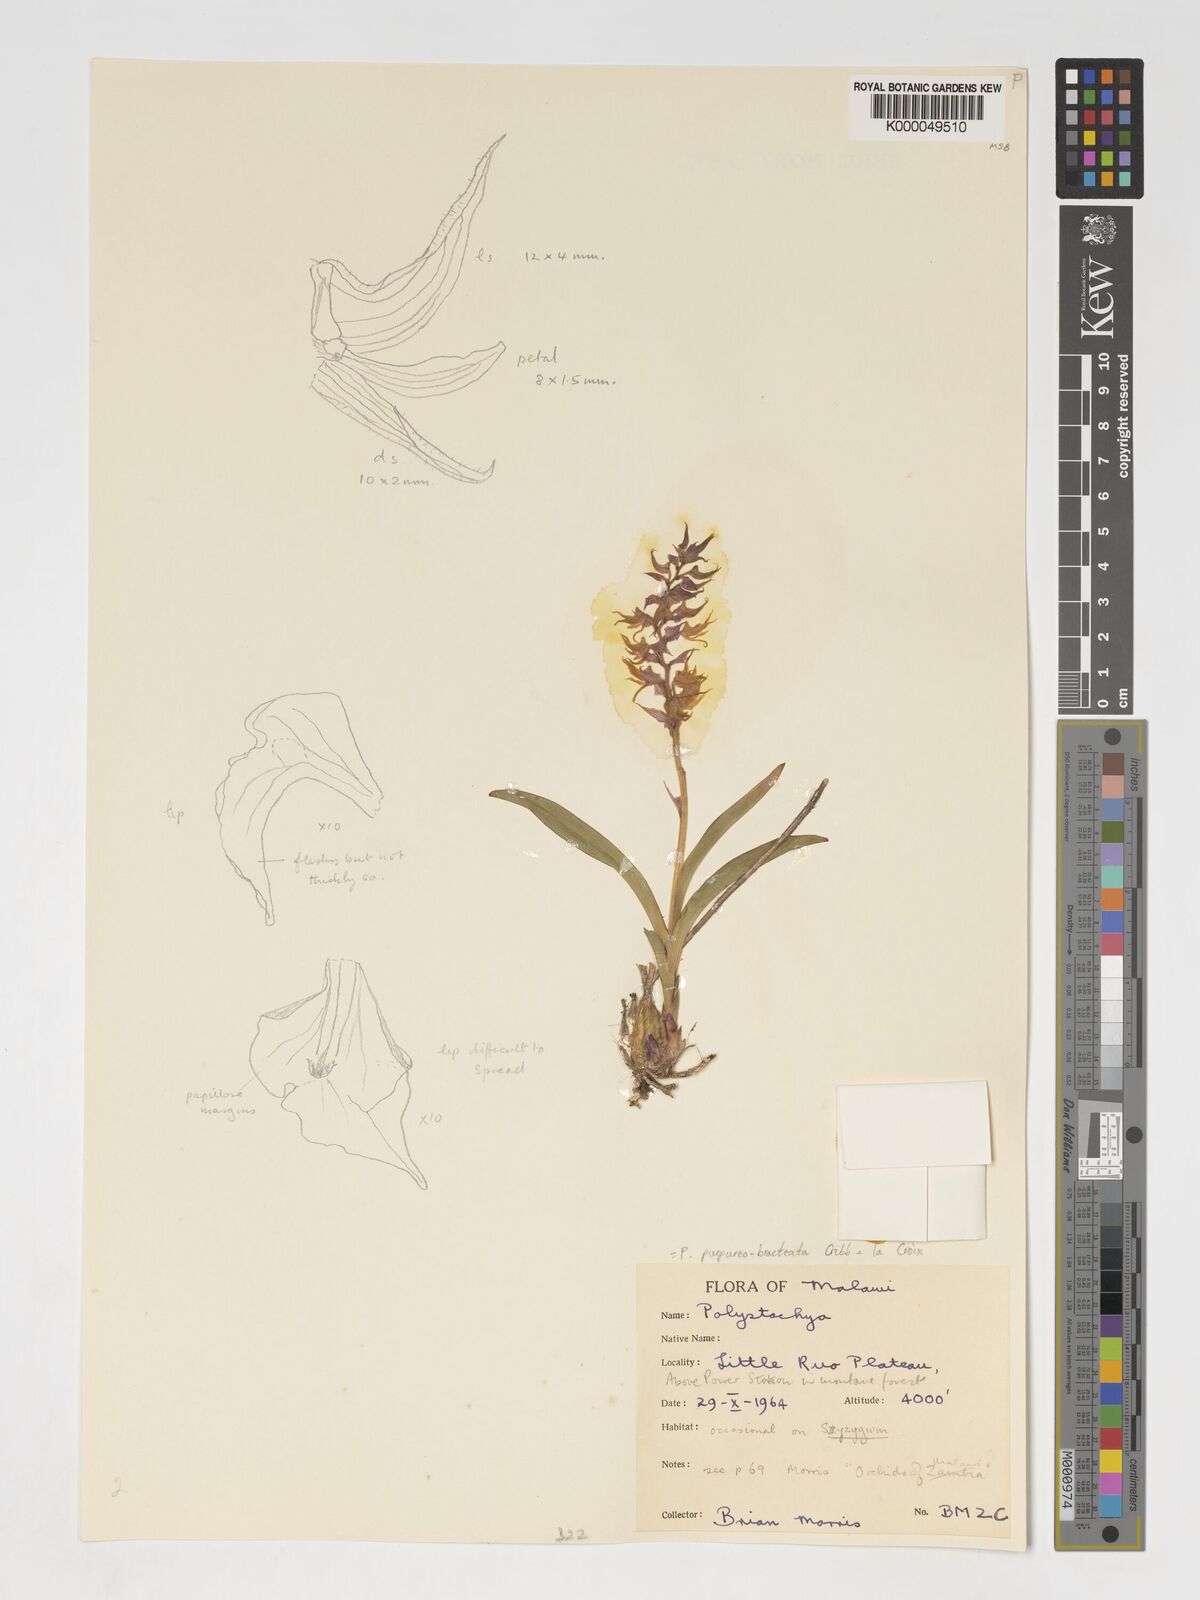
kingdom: Plantae
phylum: Tracheophyta
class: Liliopsida
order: Asparagales
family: Orchidaceae
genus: Polystachya
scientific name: Polystachya purpureobracteata
